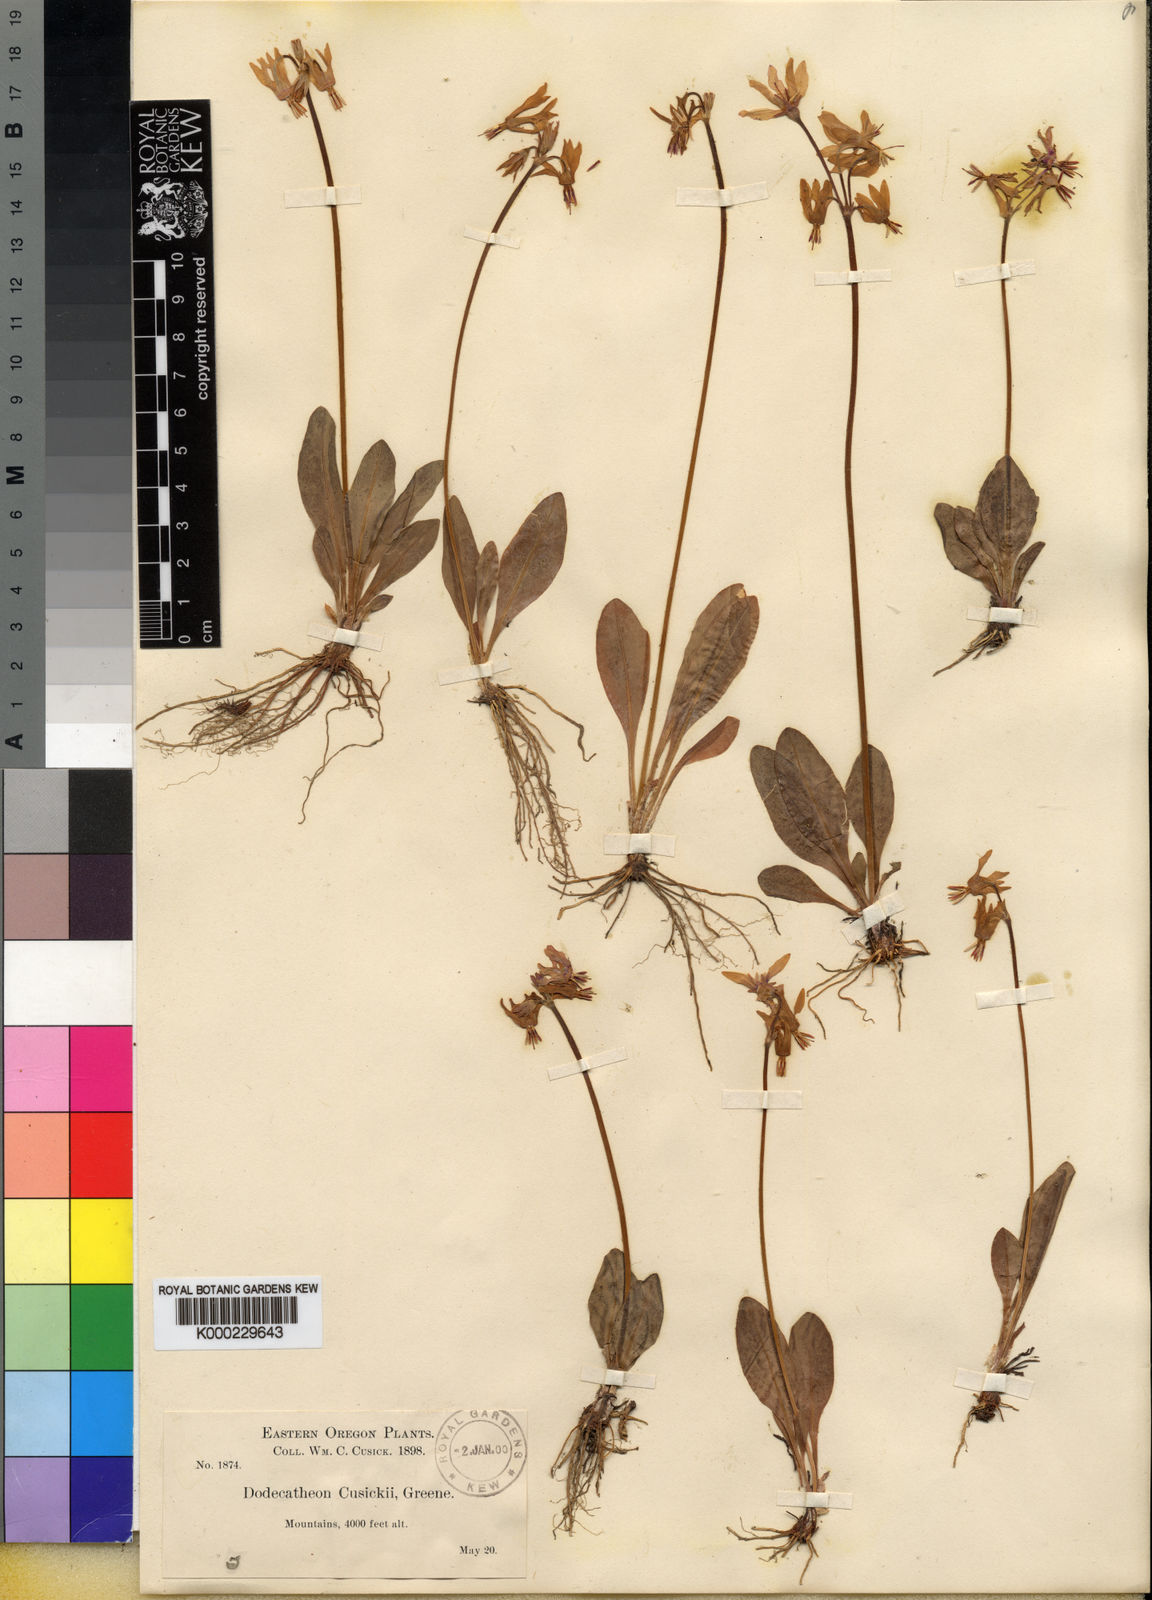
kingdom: Plantae
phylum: Tracheophyta
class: Magnoliopsida
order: Ericales
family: Primulaceae
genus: Dodecatheon
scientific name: Dodecatheon pulchellum
